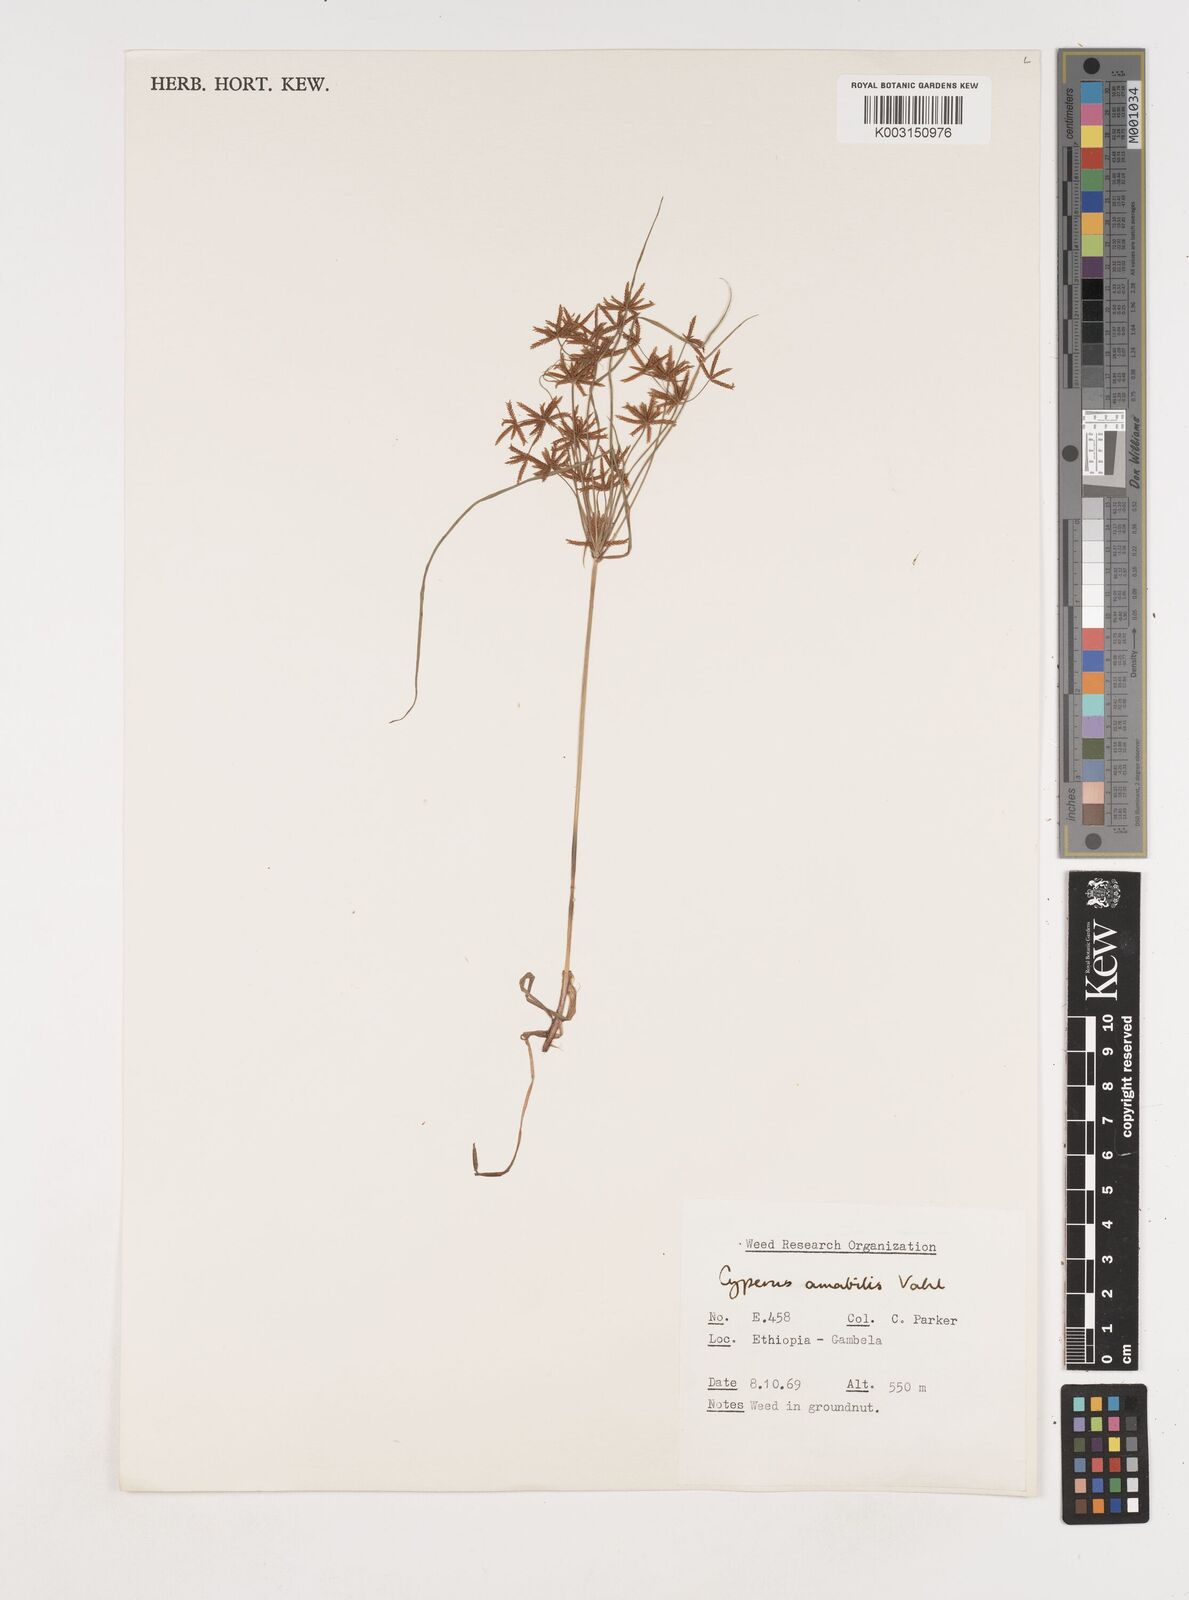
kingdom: Plantae
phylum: Tracheophyta
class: Liliopsida
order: Poales
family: Cyperaceae
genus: Cyperus
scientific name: Cyperus amabilis
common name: Foothill flat sedge
